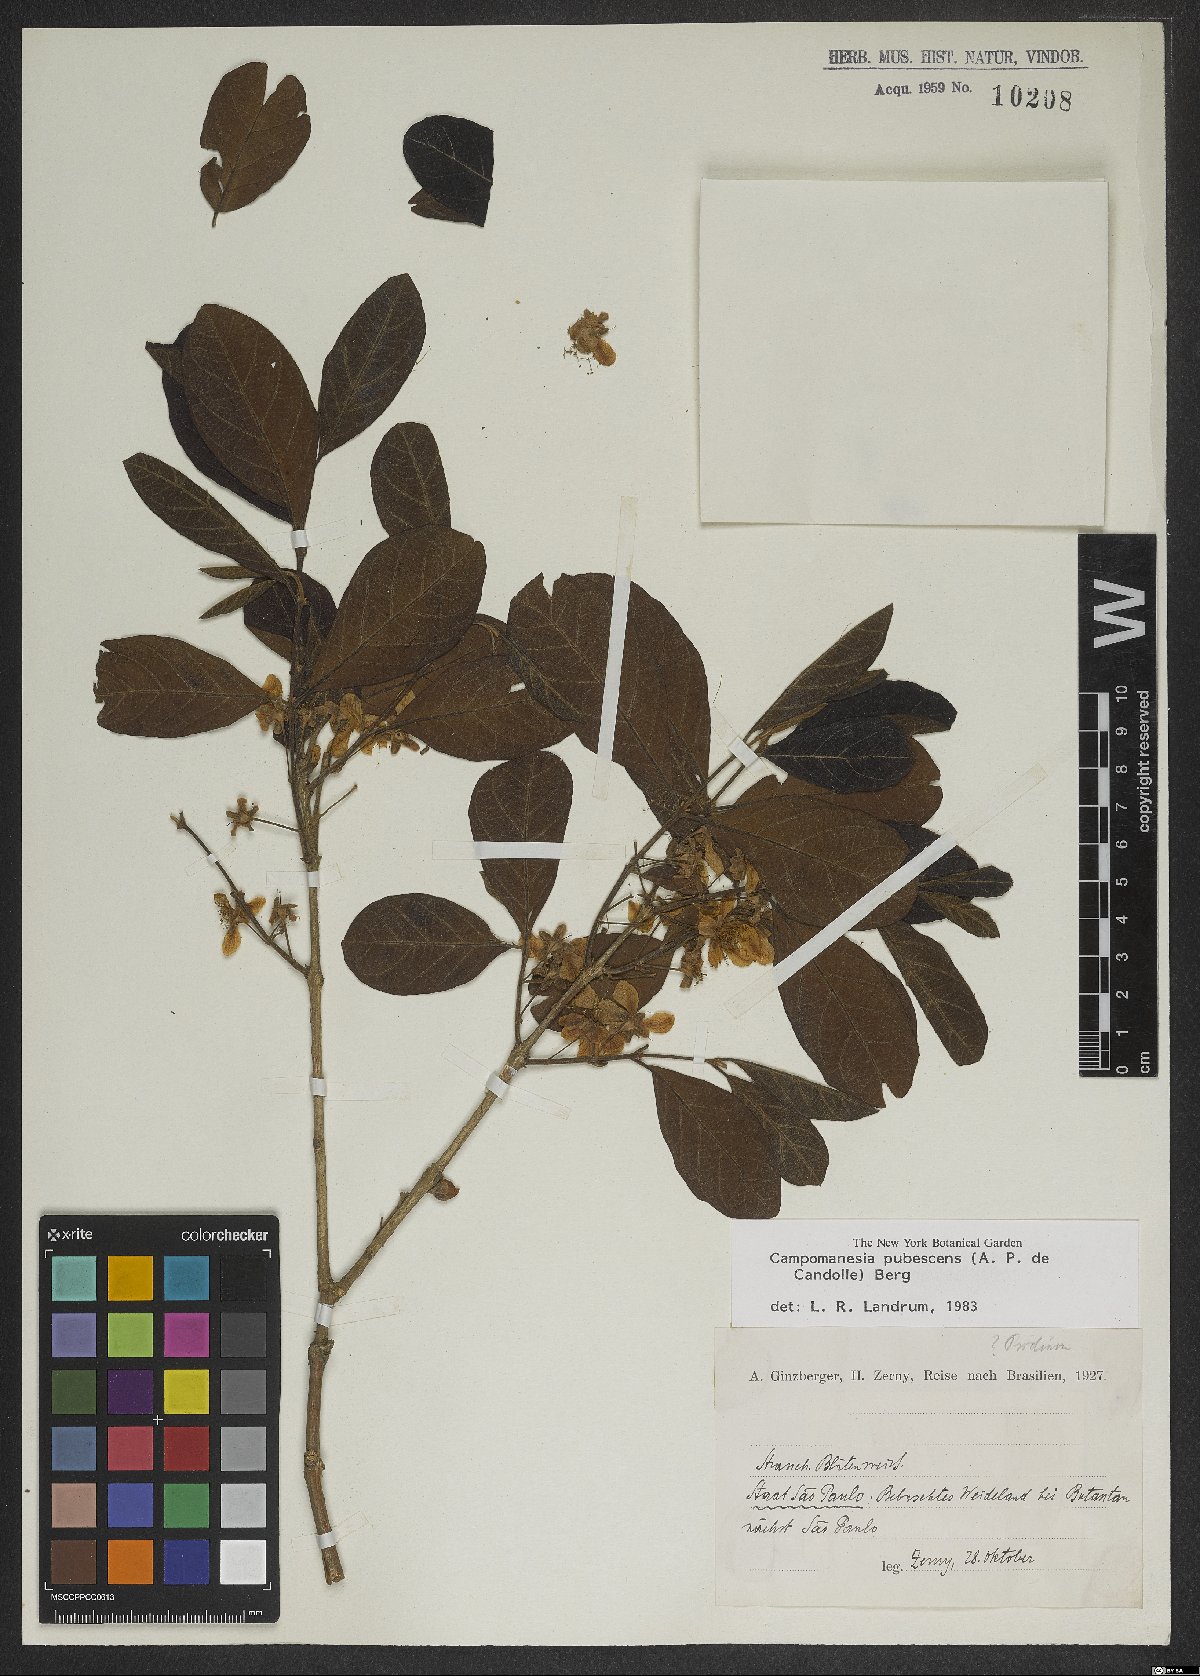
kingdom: Plantae
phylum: Tracheophyta
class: Magnoliopsida
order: Myrtales
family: Myrtaceae
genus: Campomanesia
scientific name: Campomanesia pubescens
